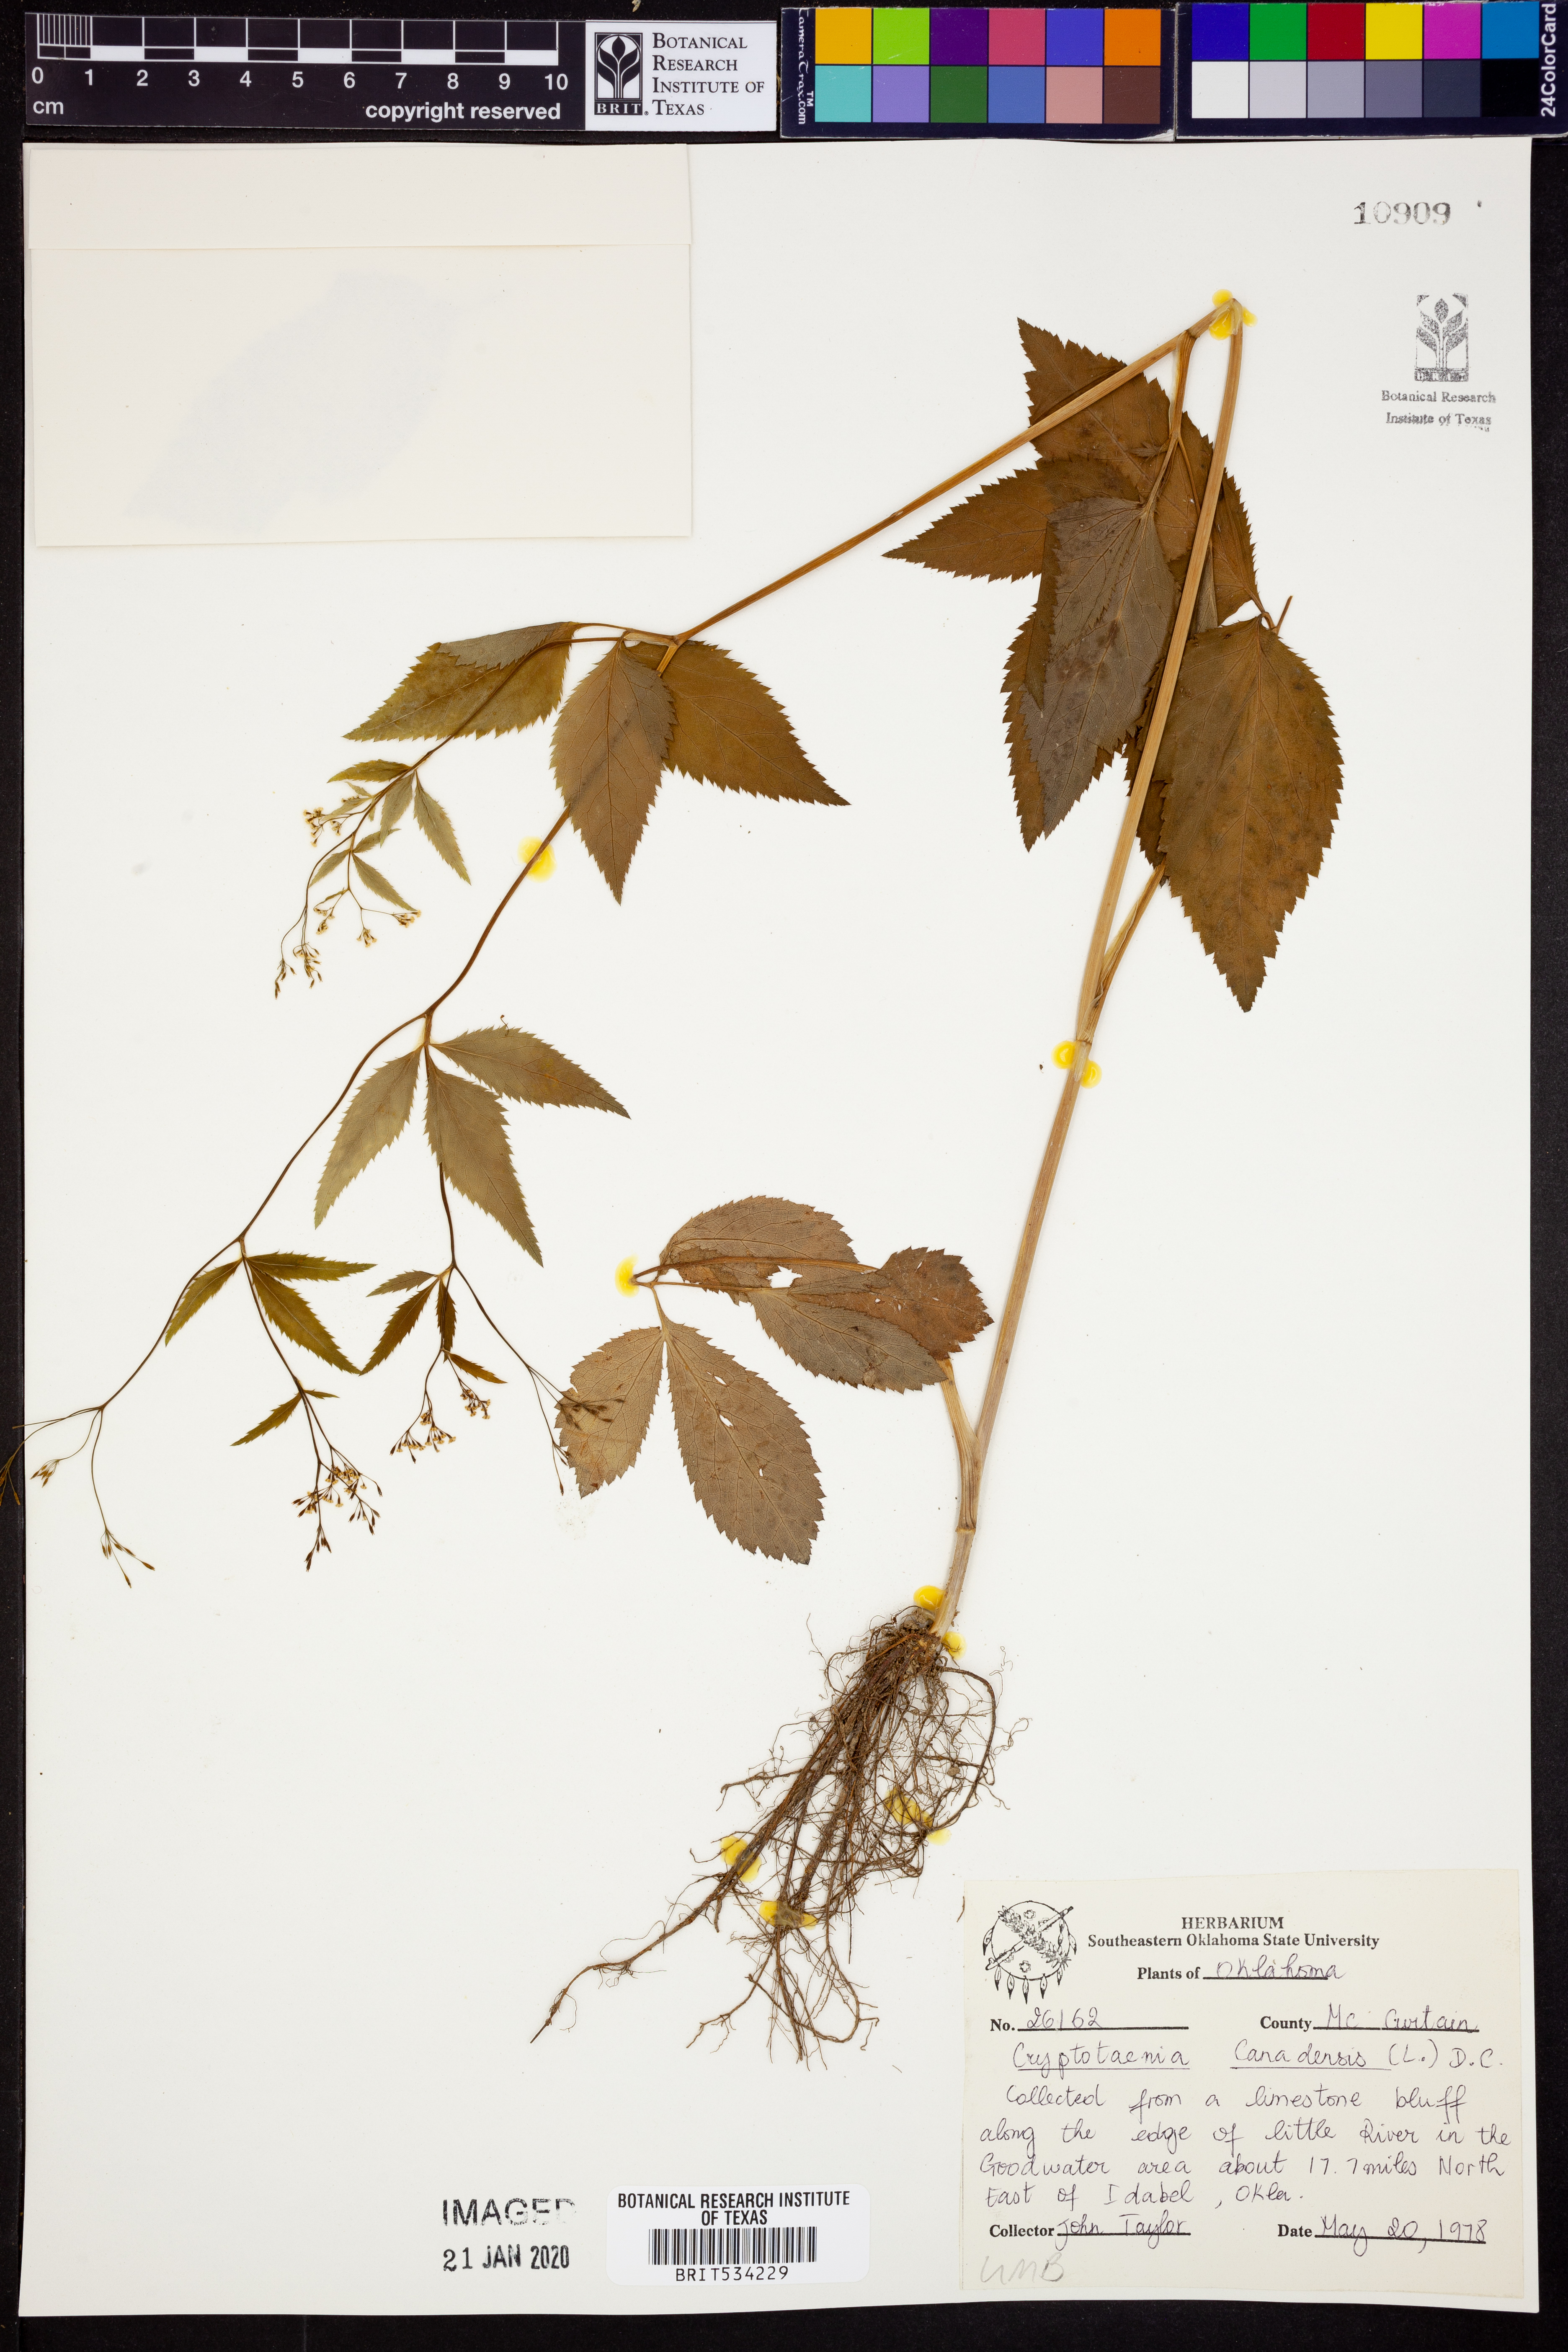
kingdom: Plantae
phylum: Tracheophyta
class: Magnoliopsida
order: Apiales
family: Apiaceae
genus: Cryptotaenia
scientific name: Cryptotaenia canadensis
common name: Honewort
